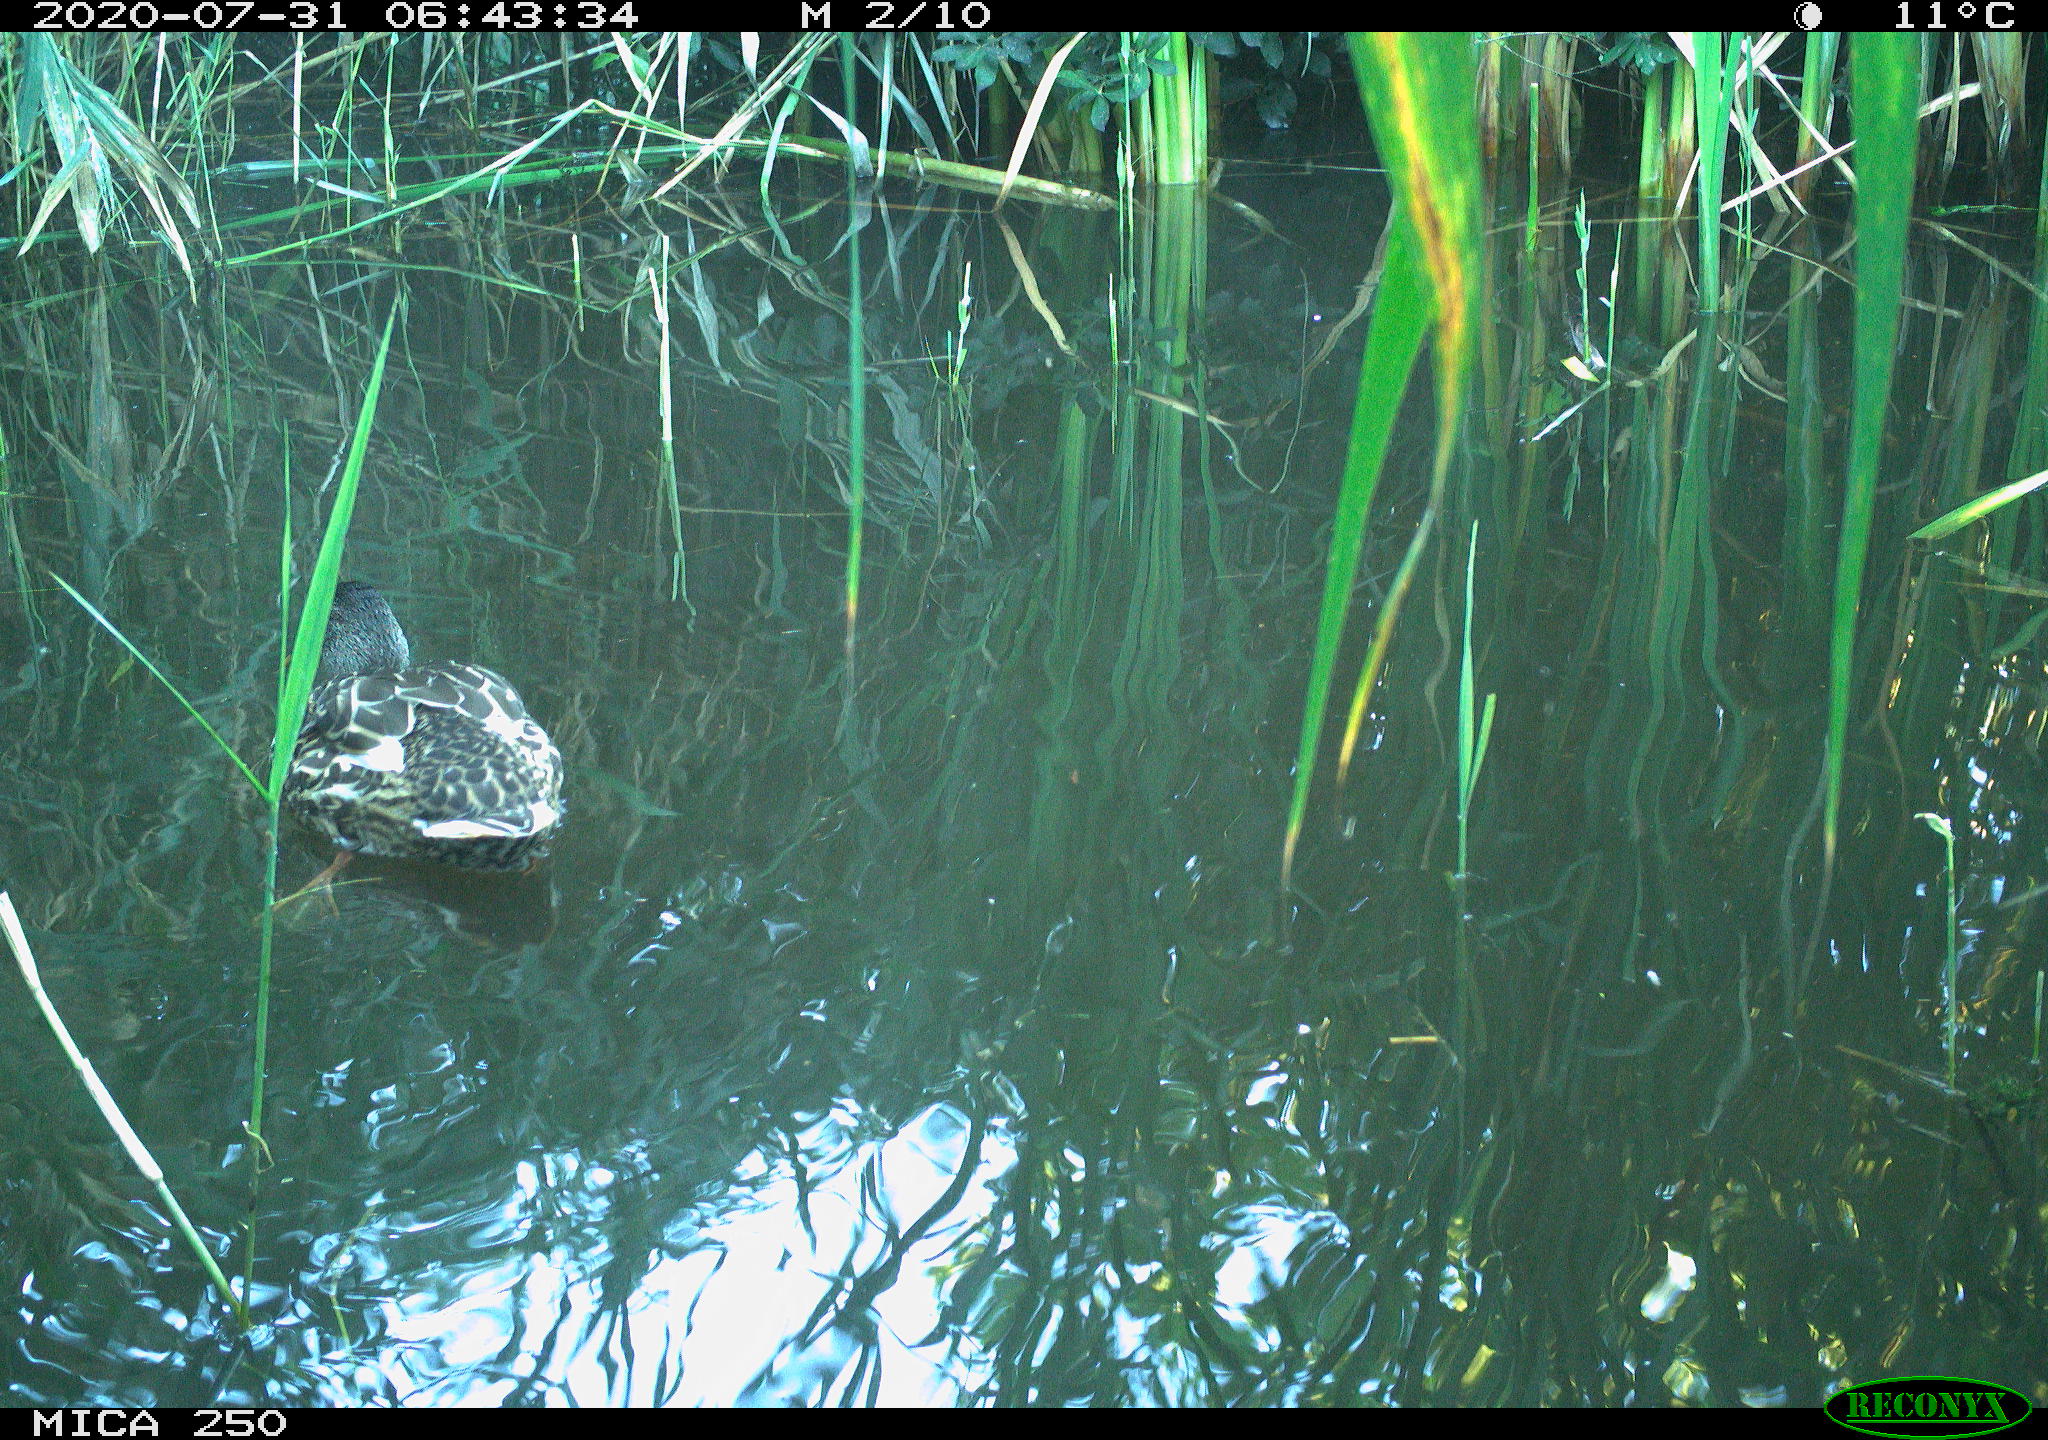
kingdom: Animalia
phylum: Chordata
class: Aves
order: Anseriformes
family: Anatidae
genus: Anas
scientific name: Anas platyrhynchos
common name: Mallard
